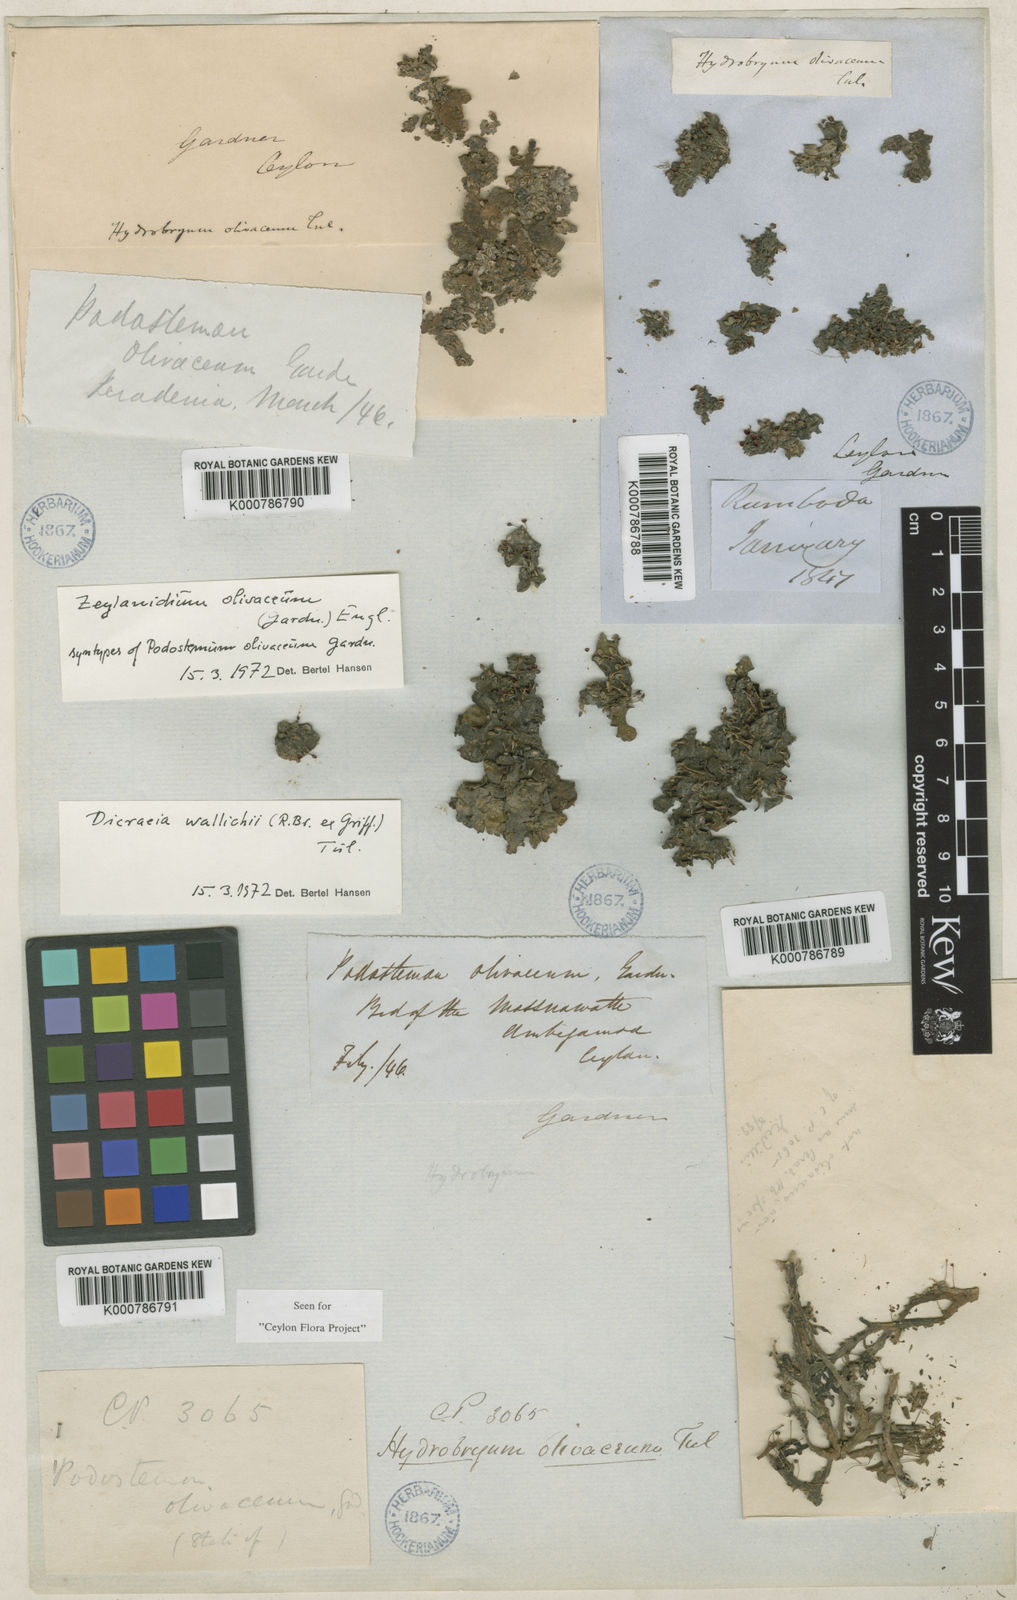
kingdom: Plantae
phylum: Tracheophyta
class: Magnoliopsida
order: Malpighiales
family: Podostemaceae
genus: Zeylanidium
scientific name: Zeylanidium olivaceum
